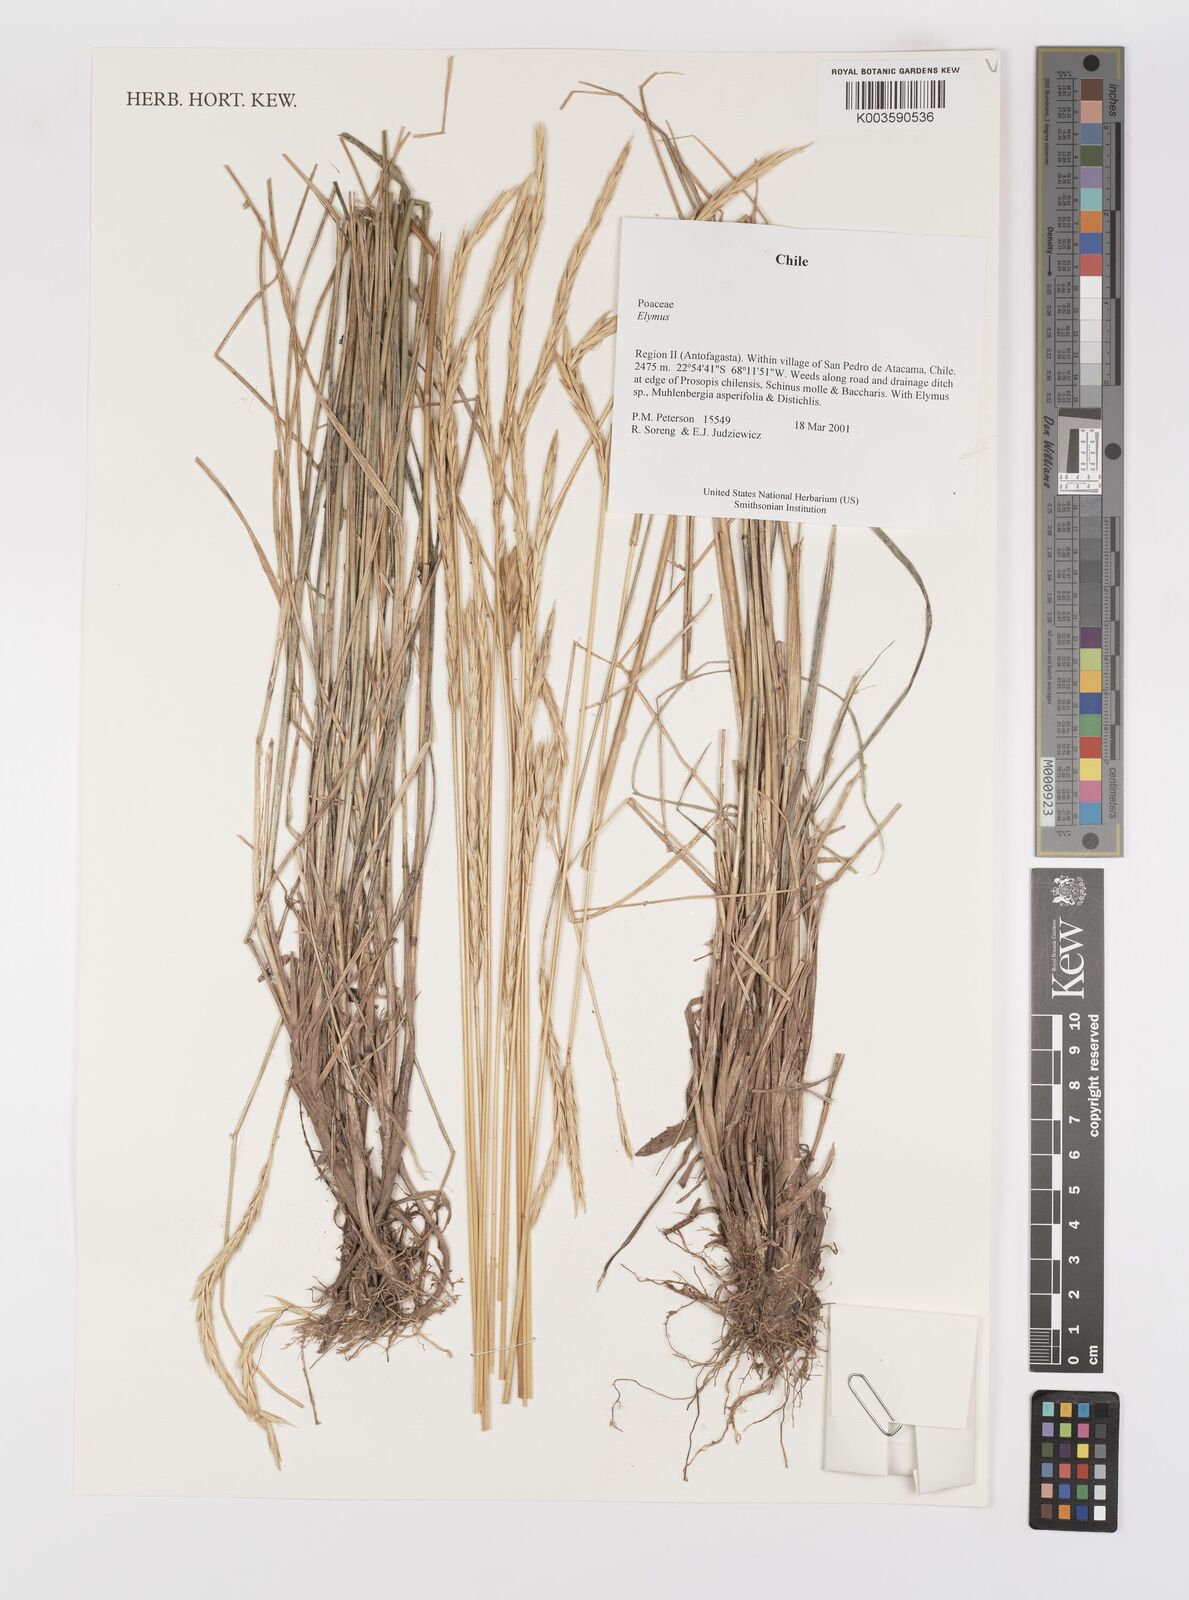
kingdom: Plantae
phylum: Tracheophyta
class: Liliopsida
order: Poales
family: Poaceae
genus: Elymus
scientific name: Elymus
